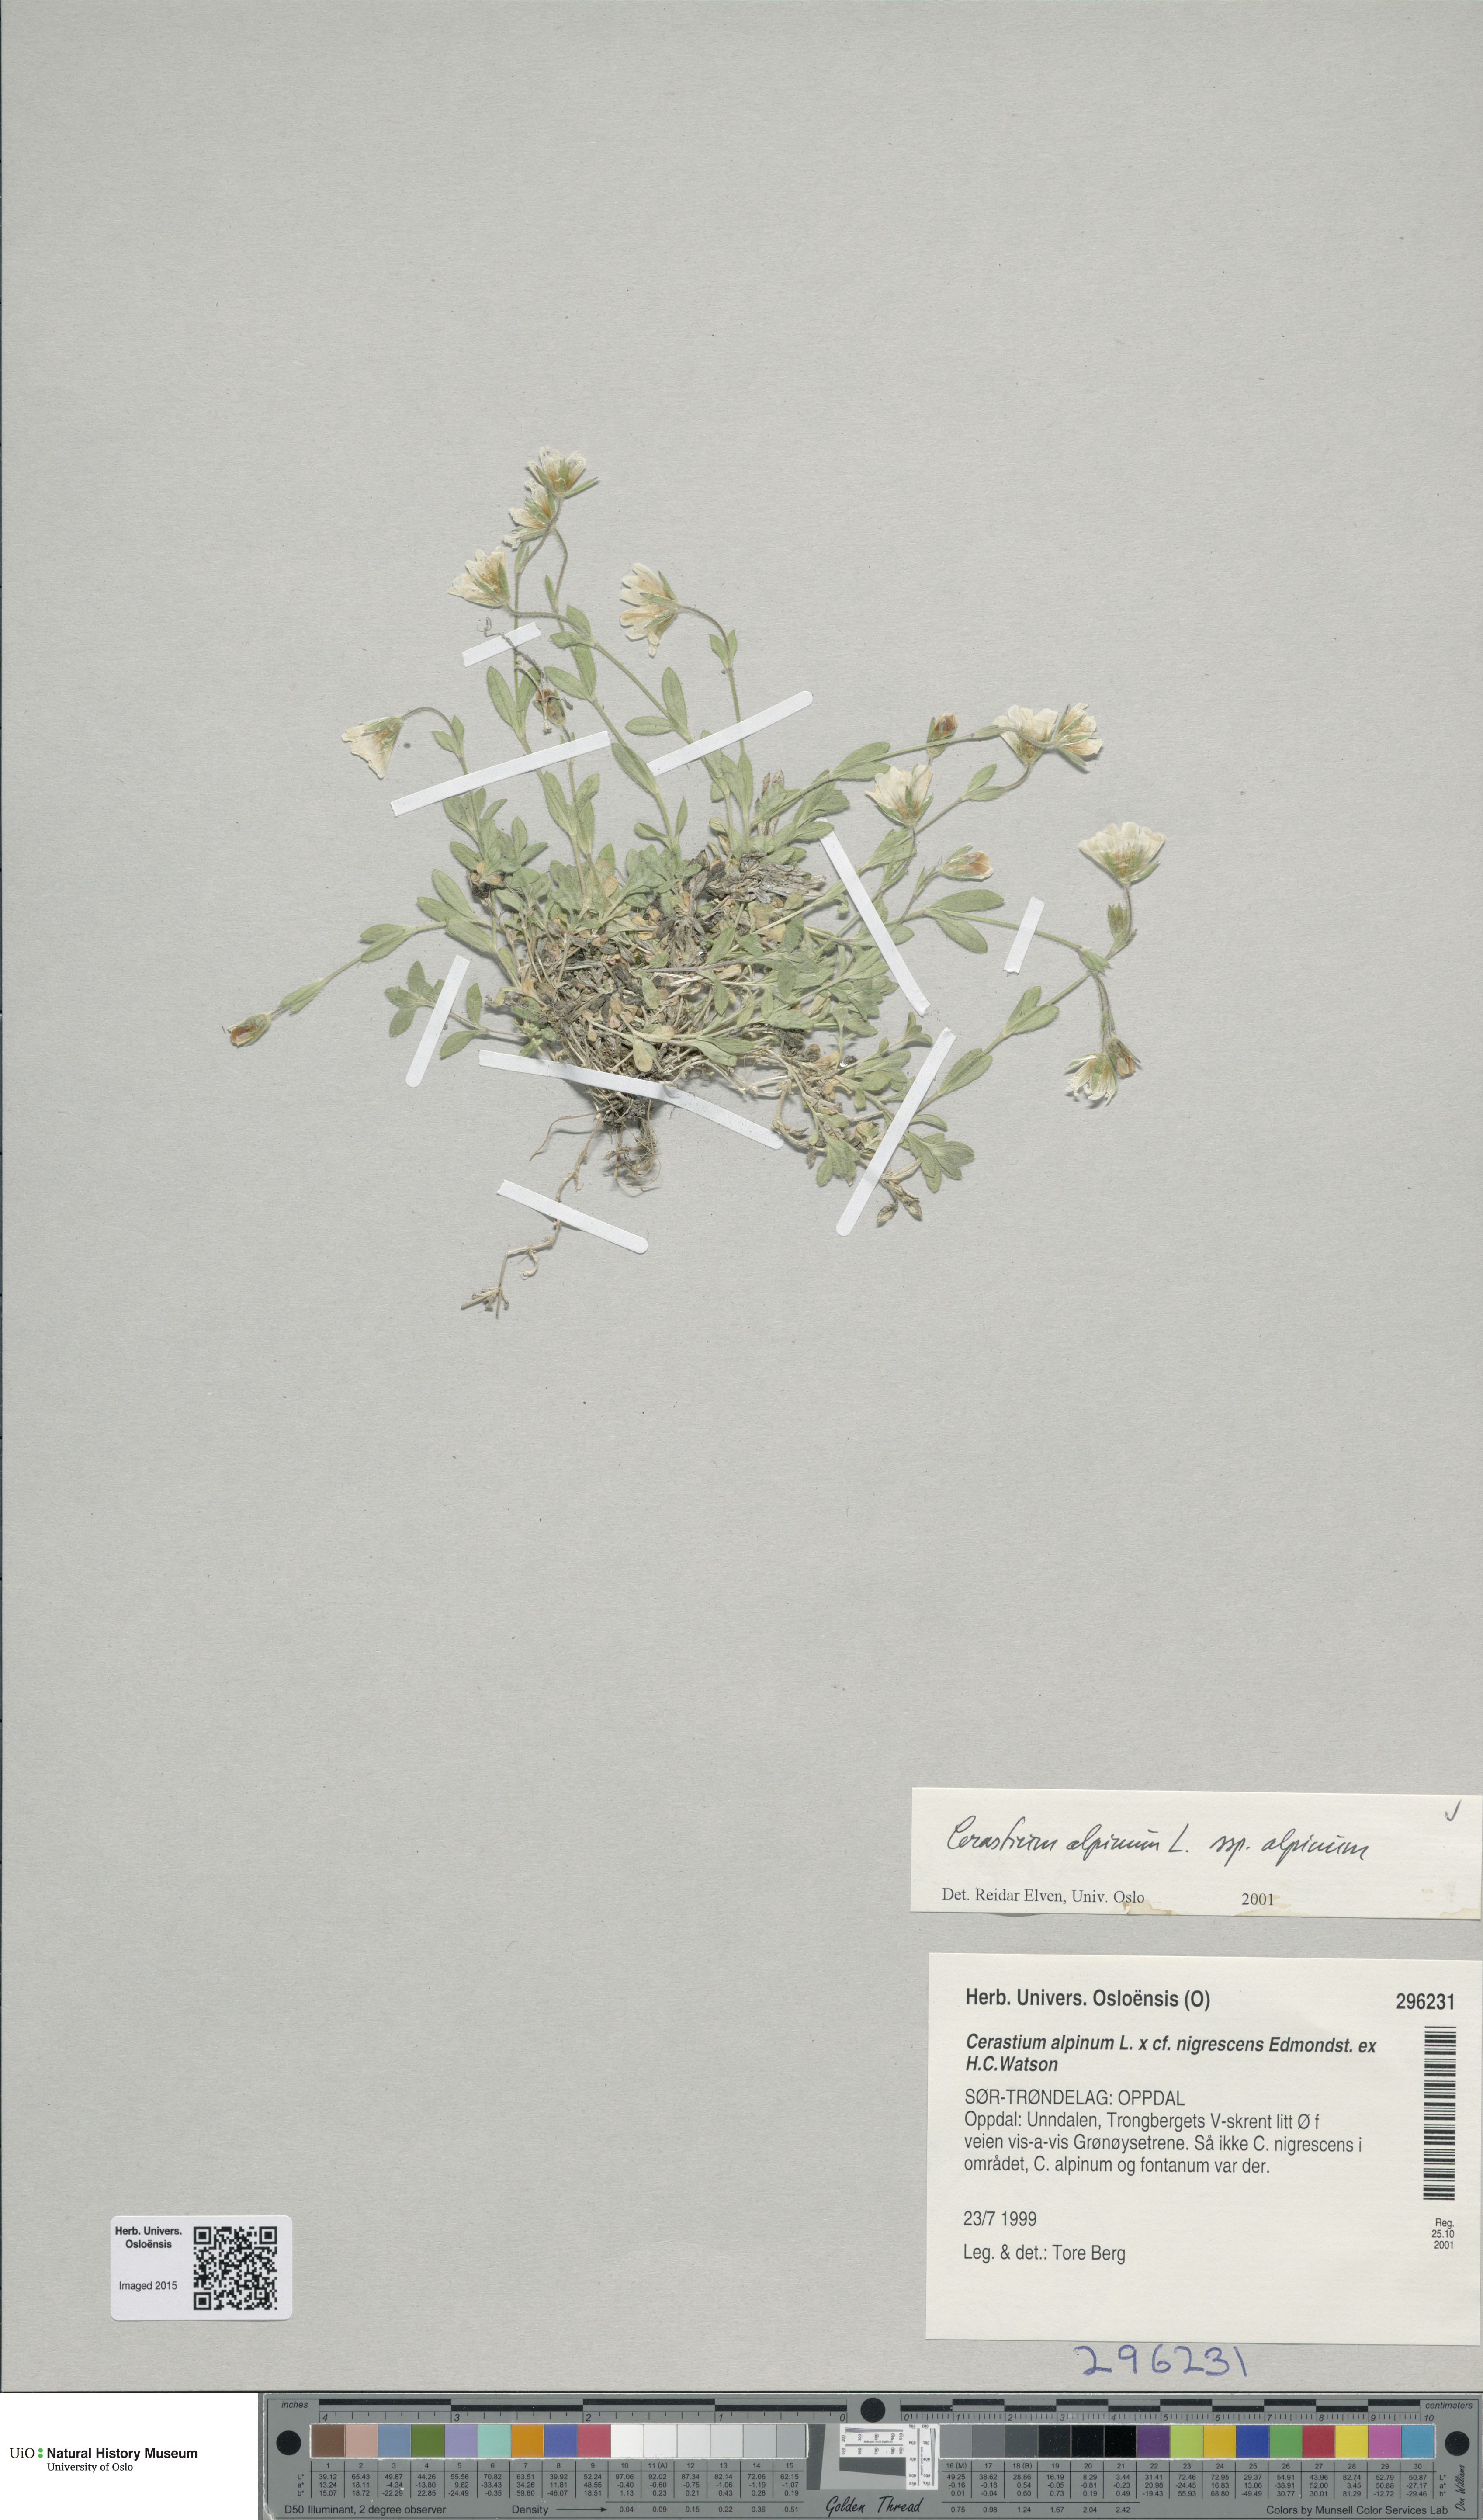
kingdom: Plantae
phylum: Tracheophyta
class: Magnoliopsida
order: Caryophyllales
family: Caryophyllaceae
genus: Cerastium
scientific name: Cerastium alpinum
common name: Alpine mouse-ear
